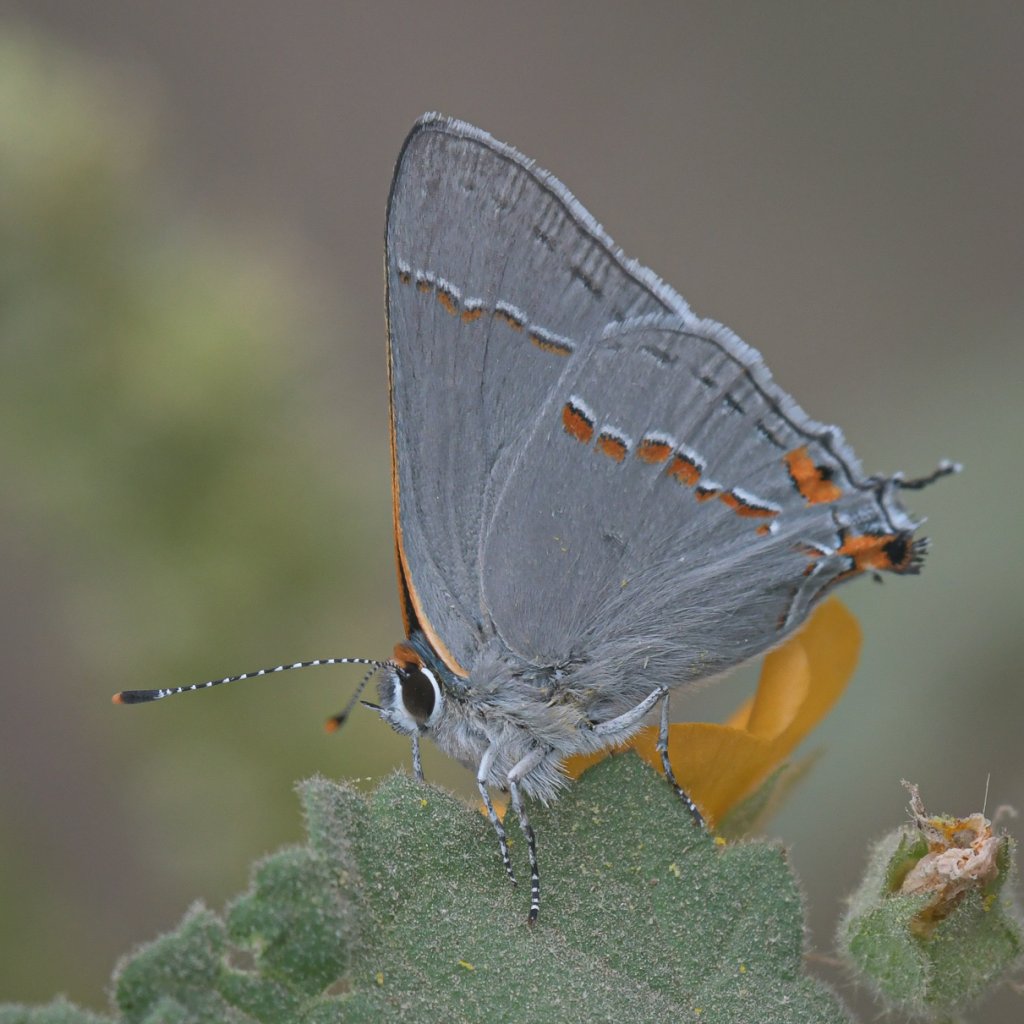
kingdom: Animalia
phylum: Arthropoda
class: Insecta
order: Lepidoptera
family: Lycaenidae
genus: Strymon
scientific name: Strymon melinus
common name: Gray Hairstreak
